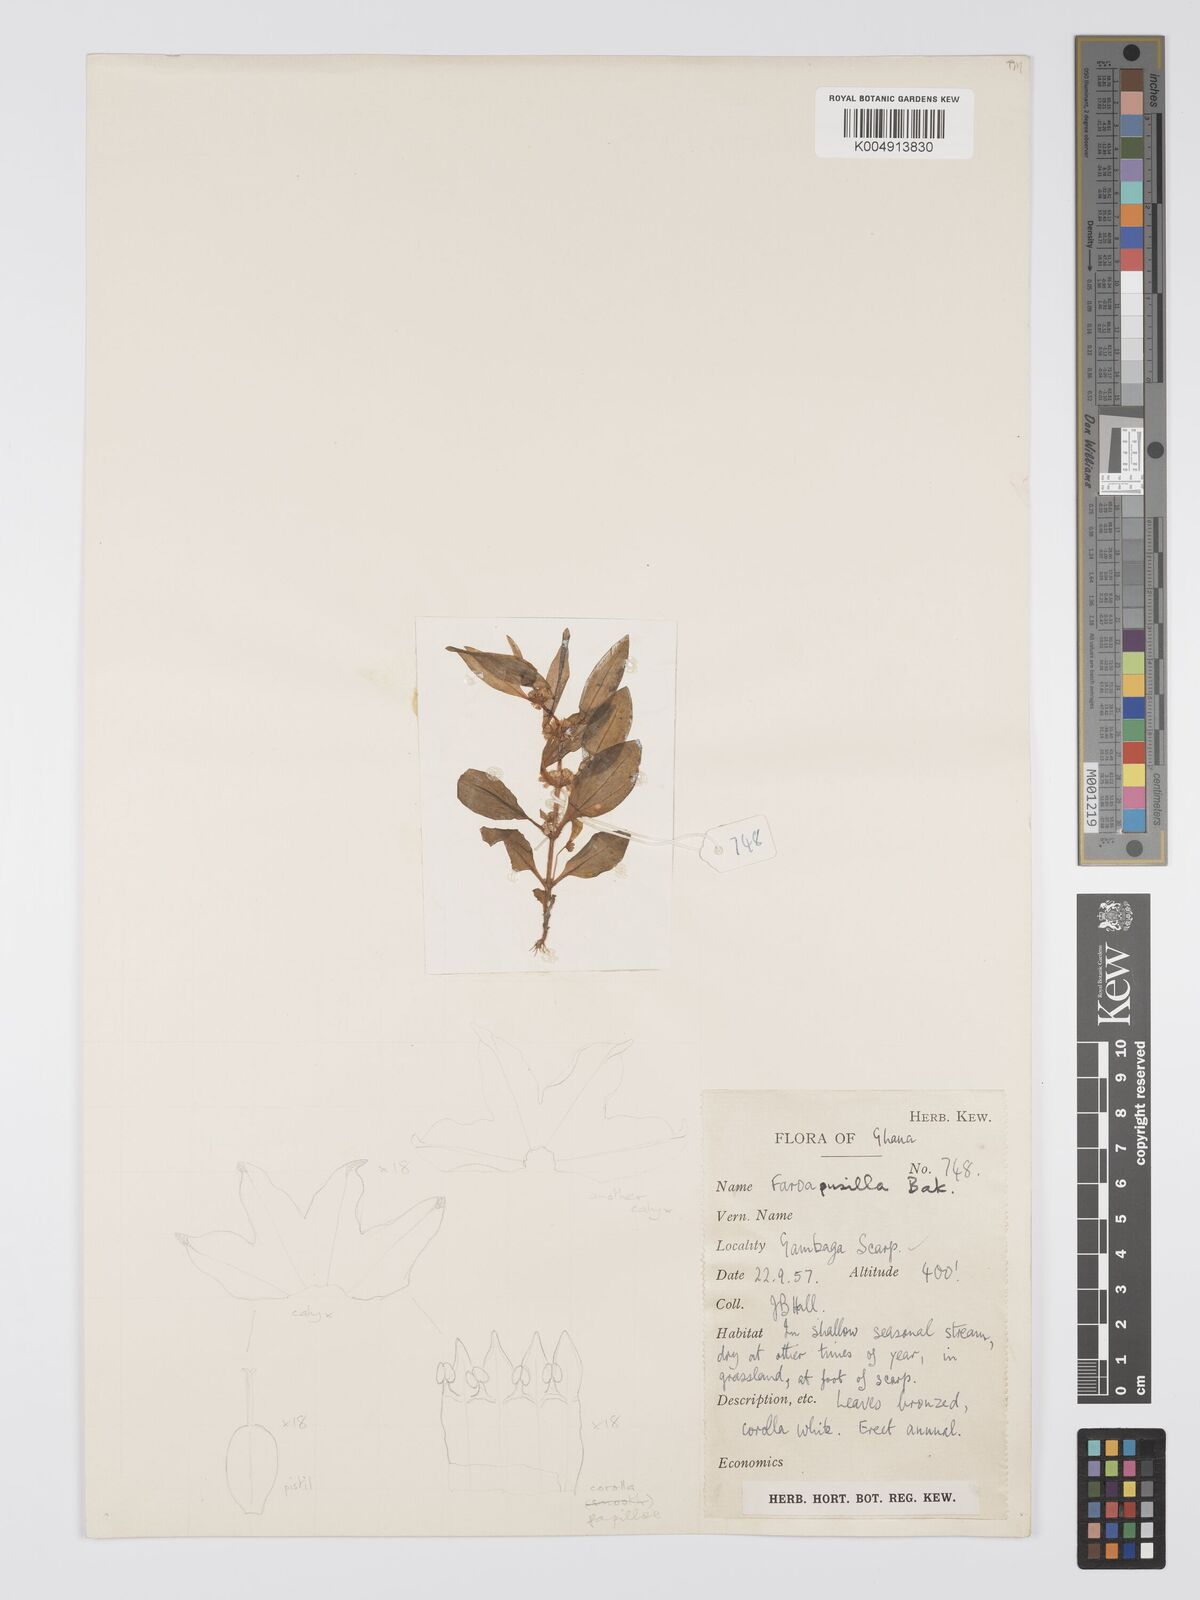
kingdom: Plantae
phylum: Tracheophyta
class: Magnoliopsida
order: Gentianales
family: Gentianaceae
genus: Faroa
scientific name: Faroa pusilla
